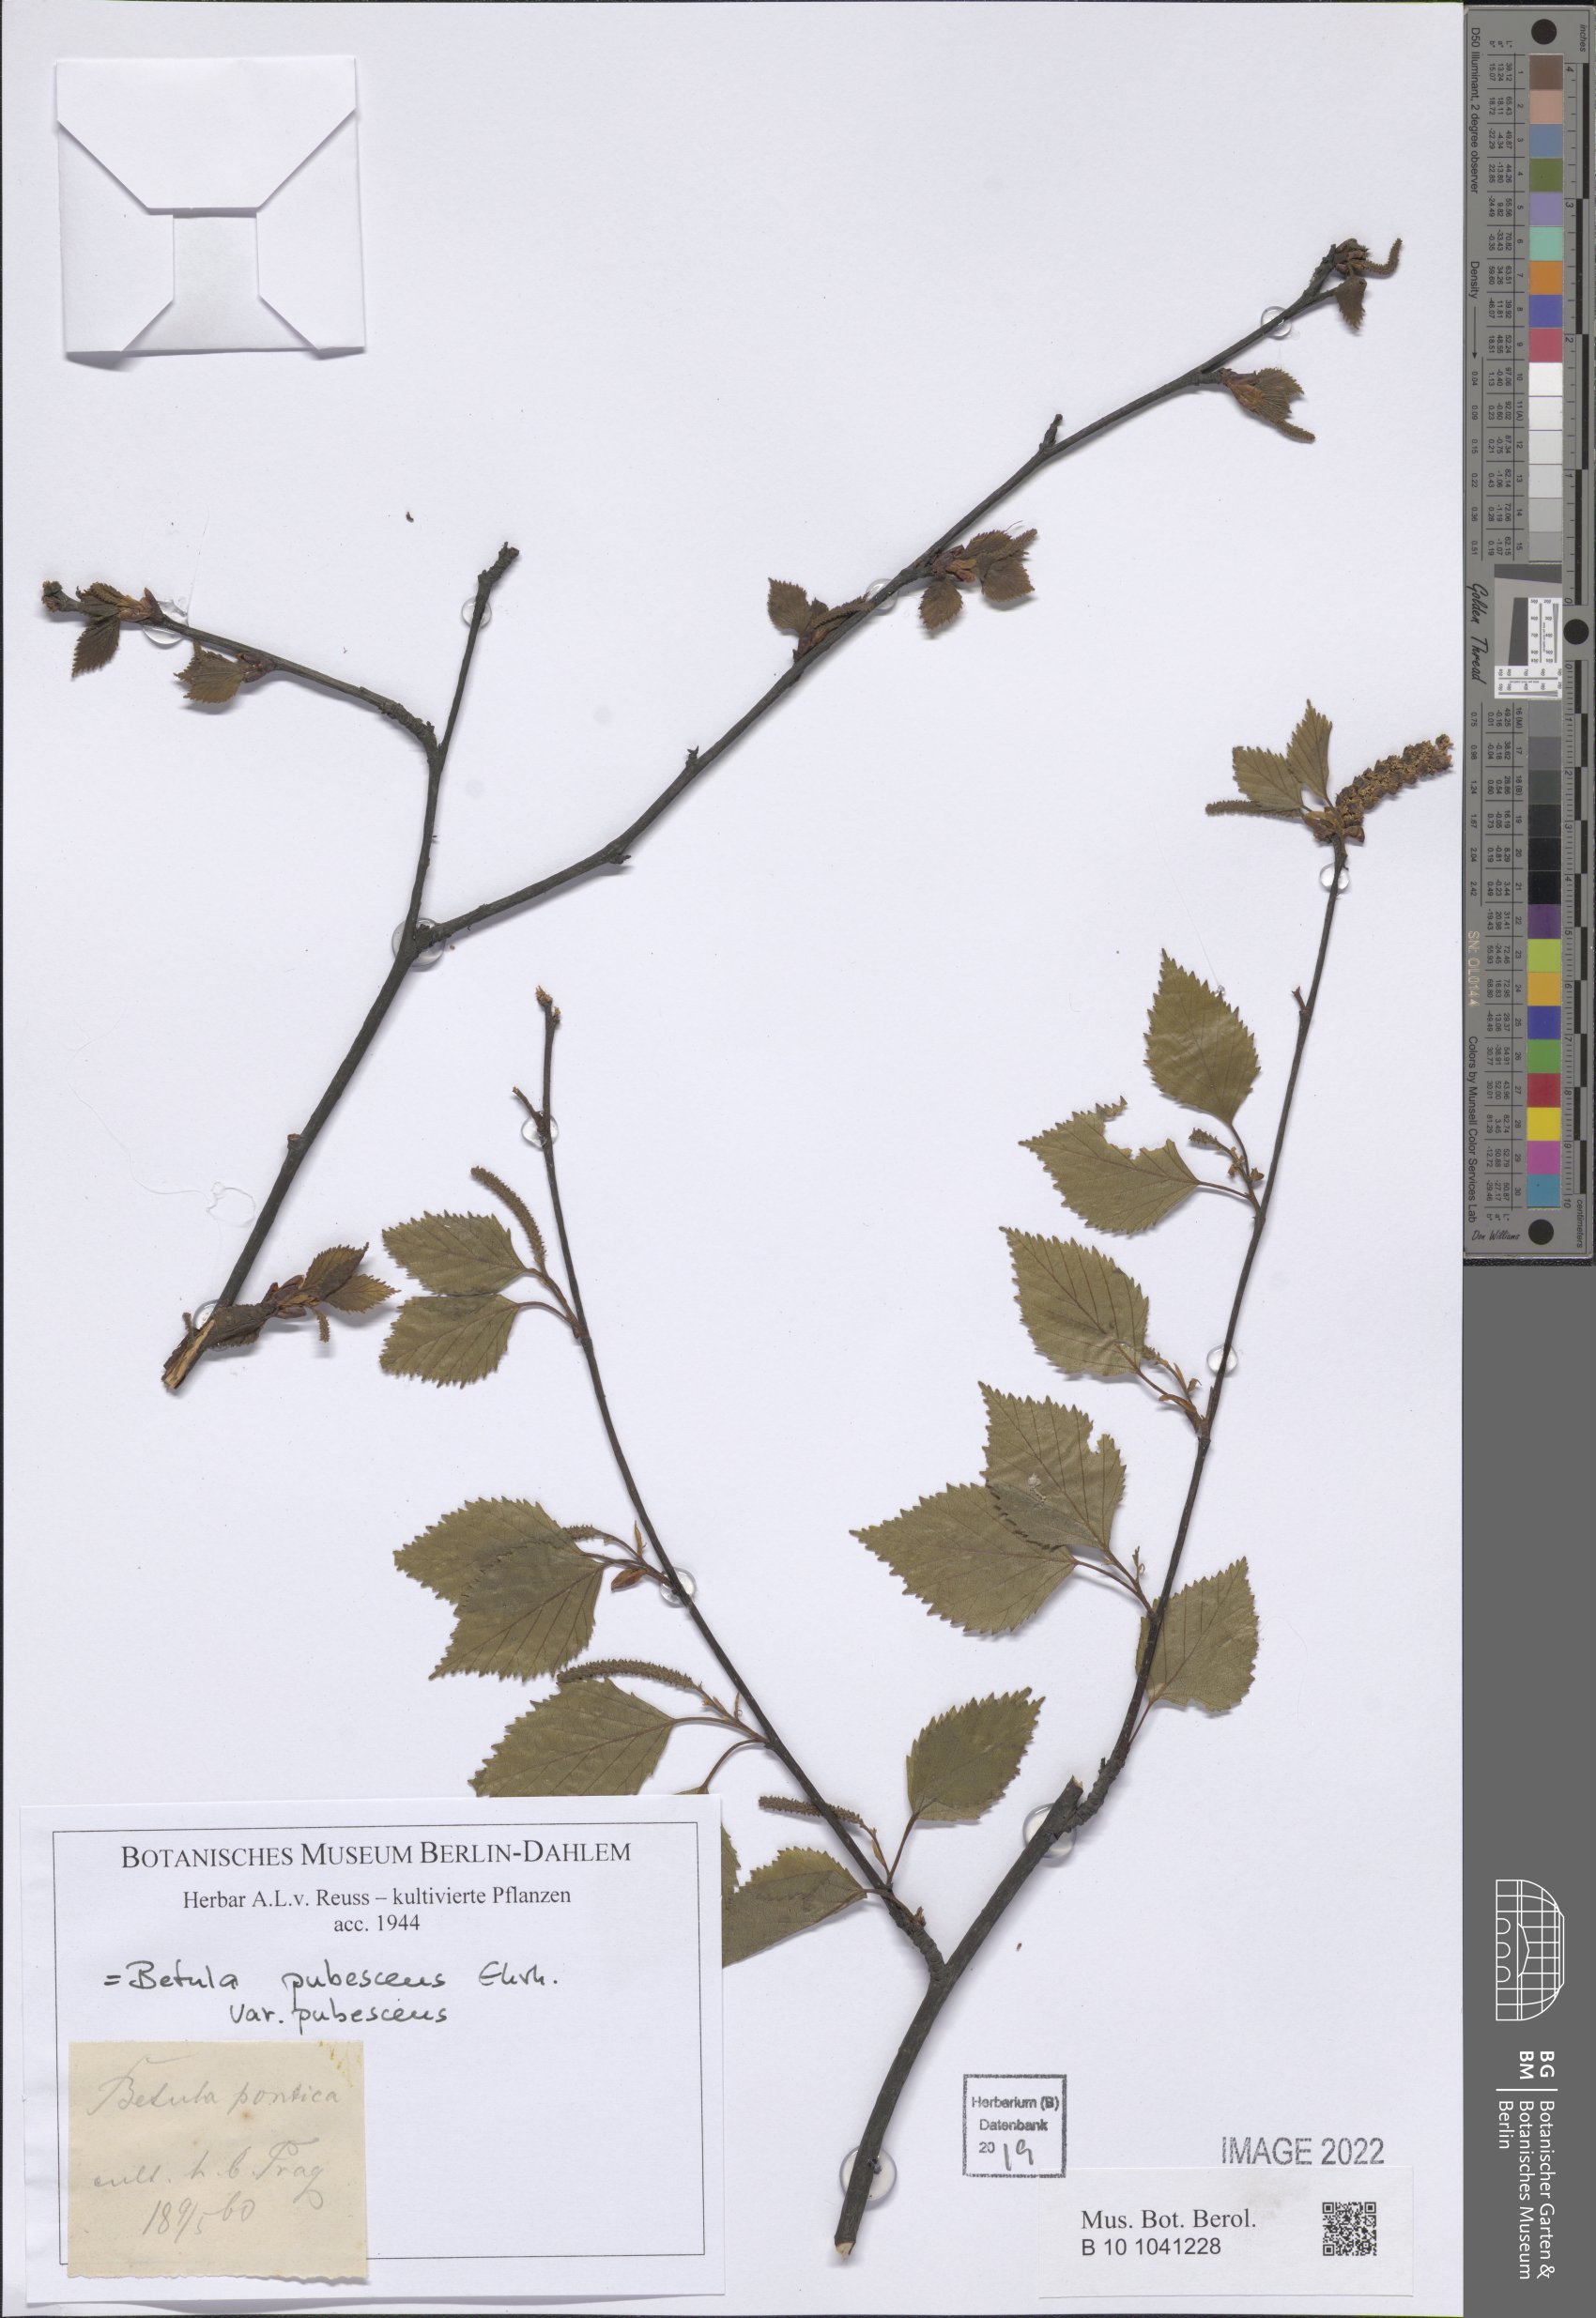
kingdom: Plantae
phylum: Tracheophyta
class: Magnoliopsida
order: Fagales
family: Betulaceae
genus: Betula
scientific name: Betula pubescens
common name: Downy birch
